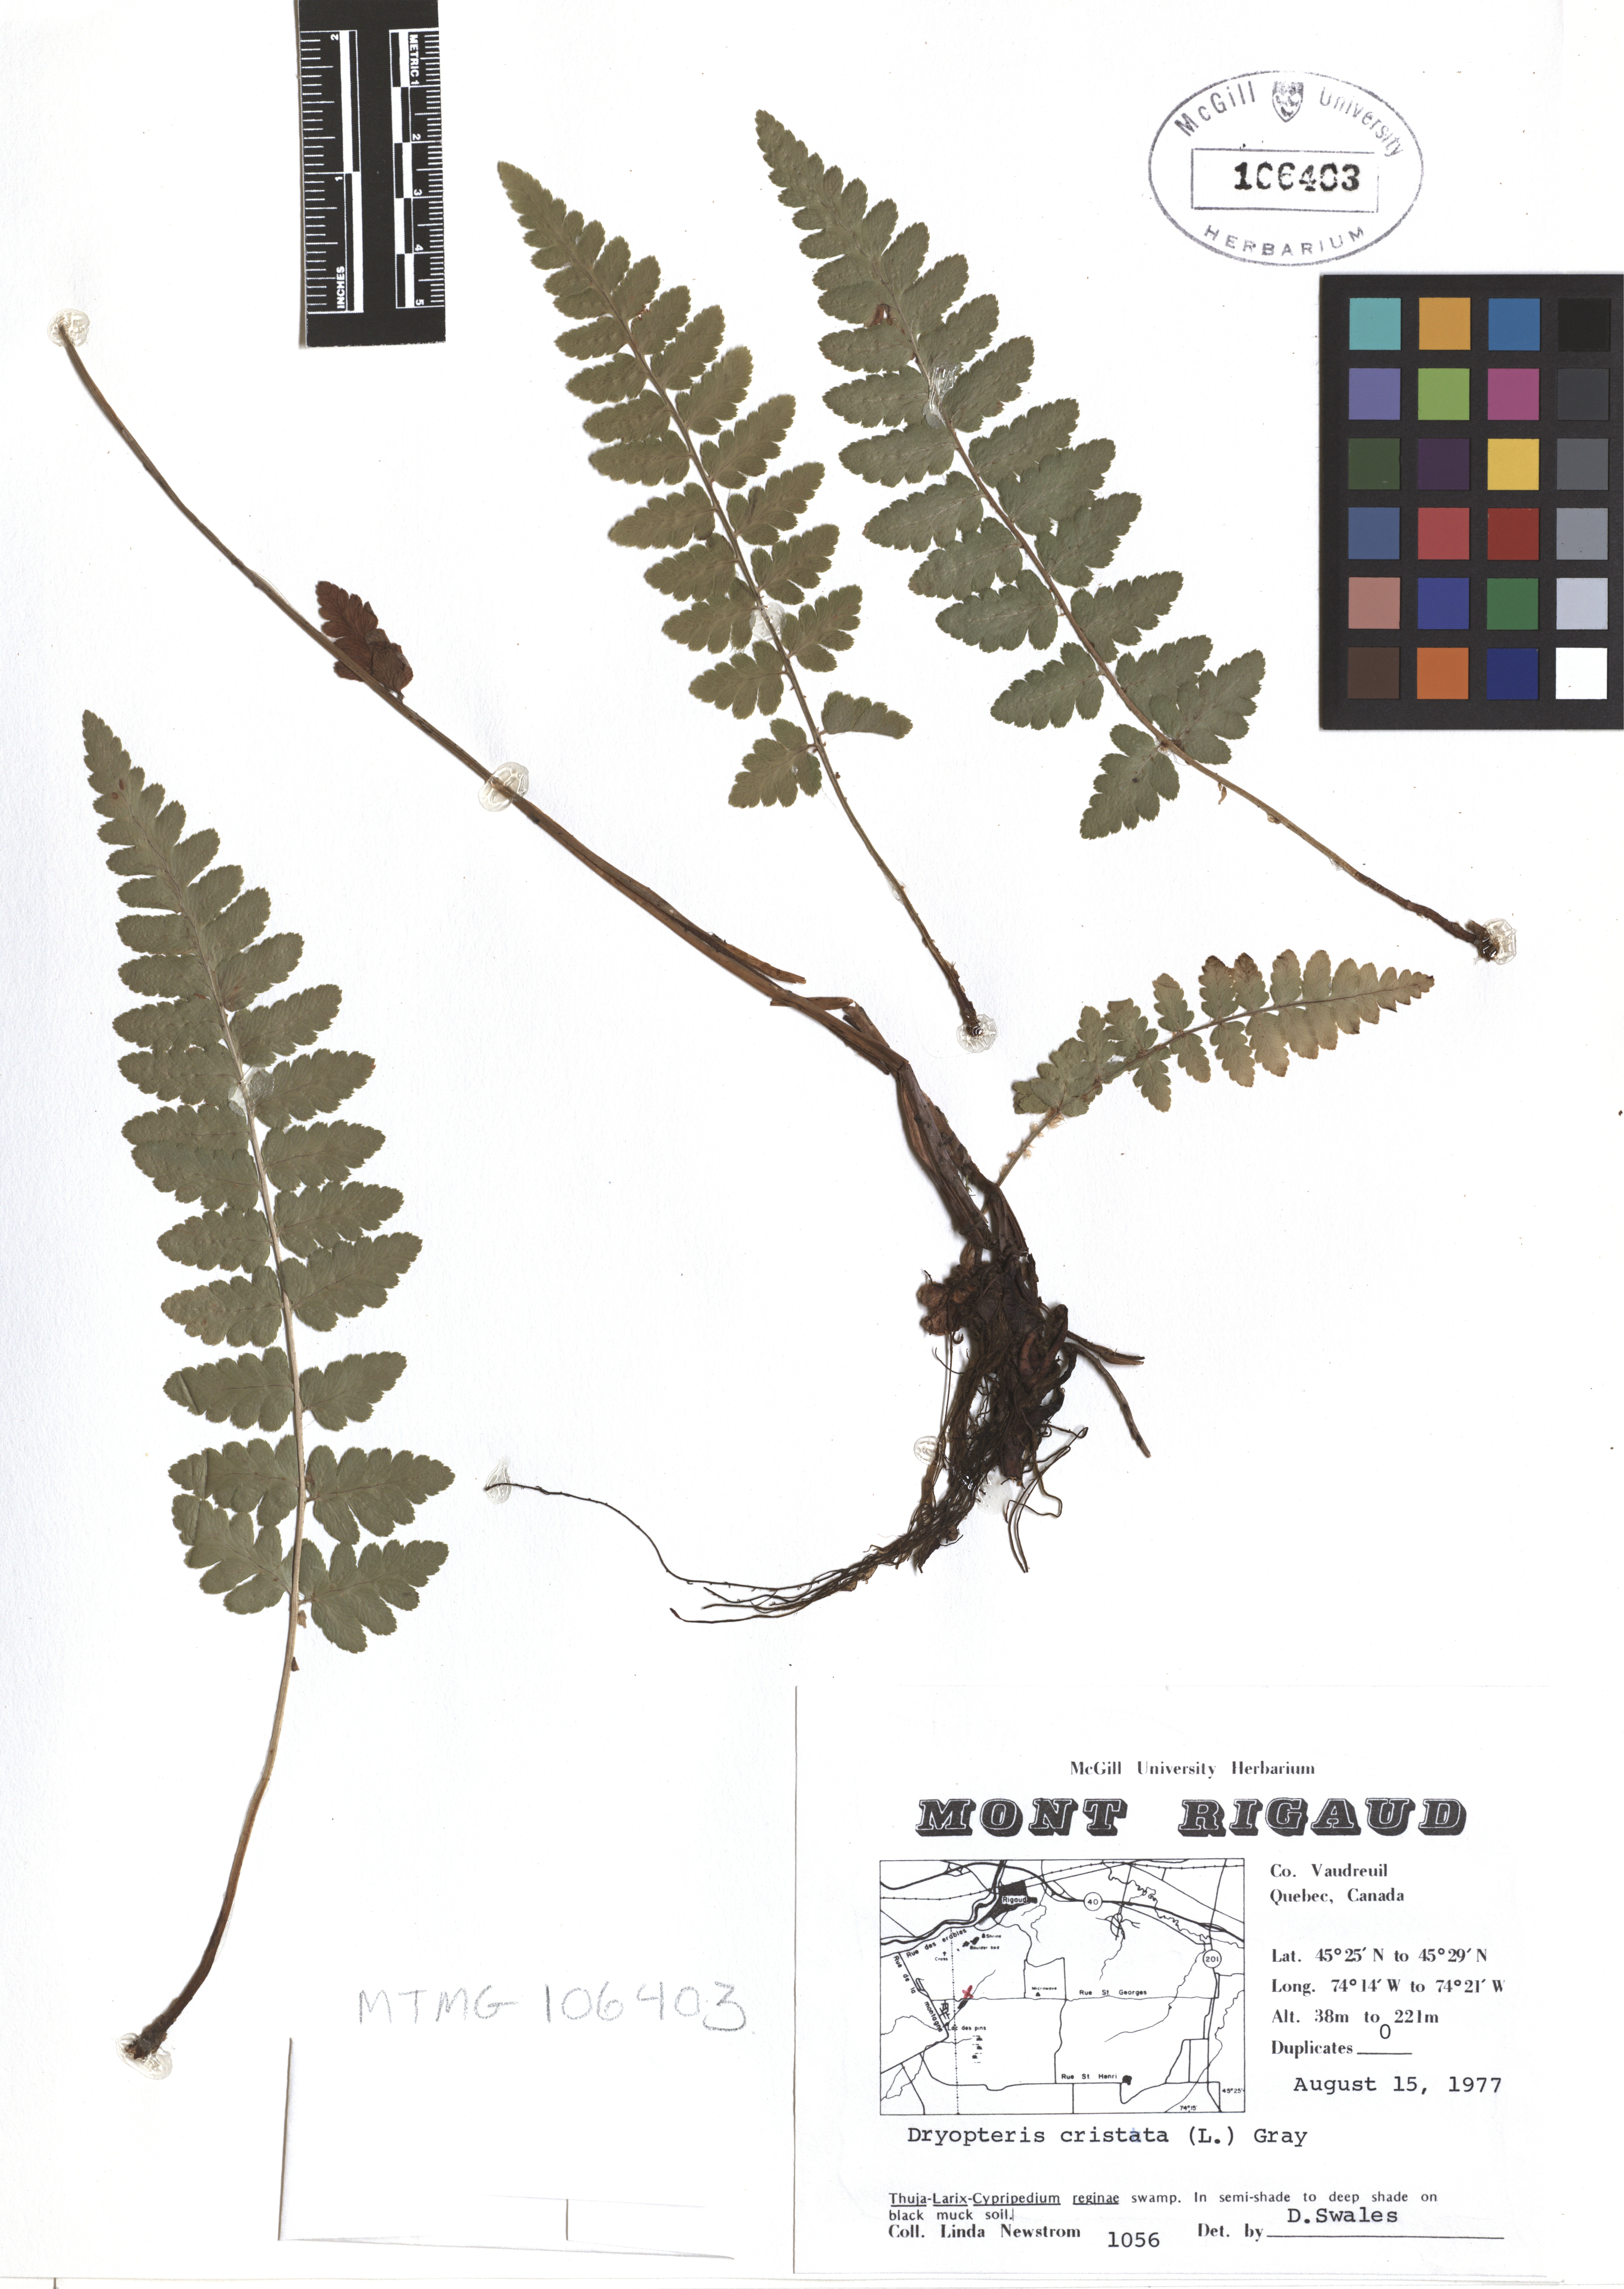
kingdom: Plantae
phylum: Tracheophyta
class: Polypodiopsida
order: Polypodiales
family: Dryopteridaceae
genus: Dryopteris
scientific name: Dryopteris cristata
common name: Crested wood fern
